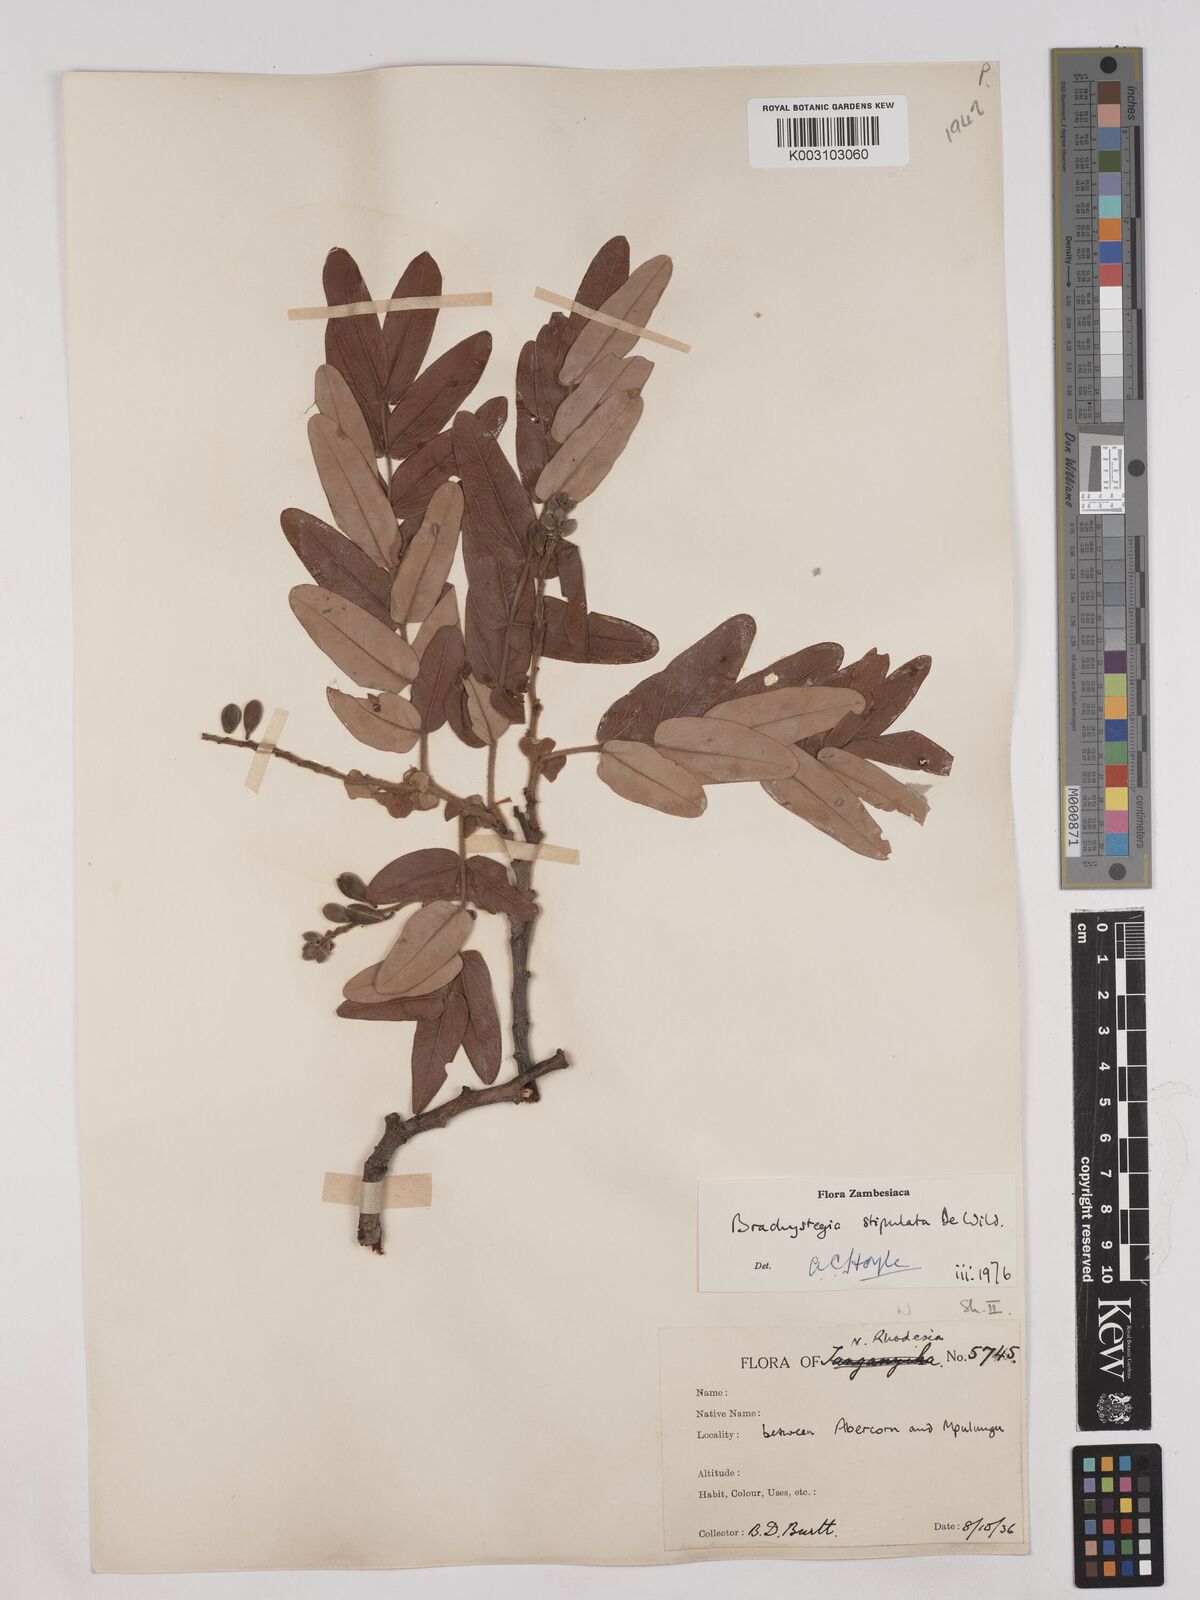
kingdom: Plantae
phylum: Tracheophyta
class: Magnoliopsida
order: Fabales
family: Fabaceae
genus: Brachystegia
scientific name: Brachystegia stipulata
